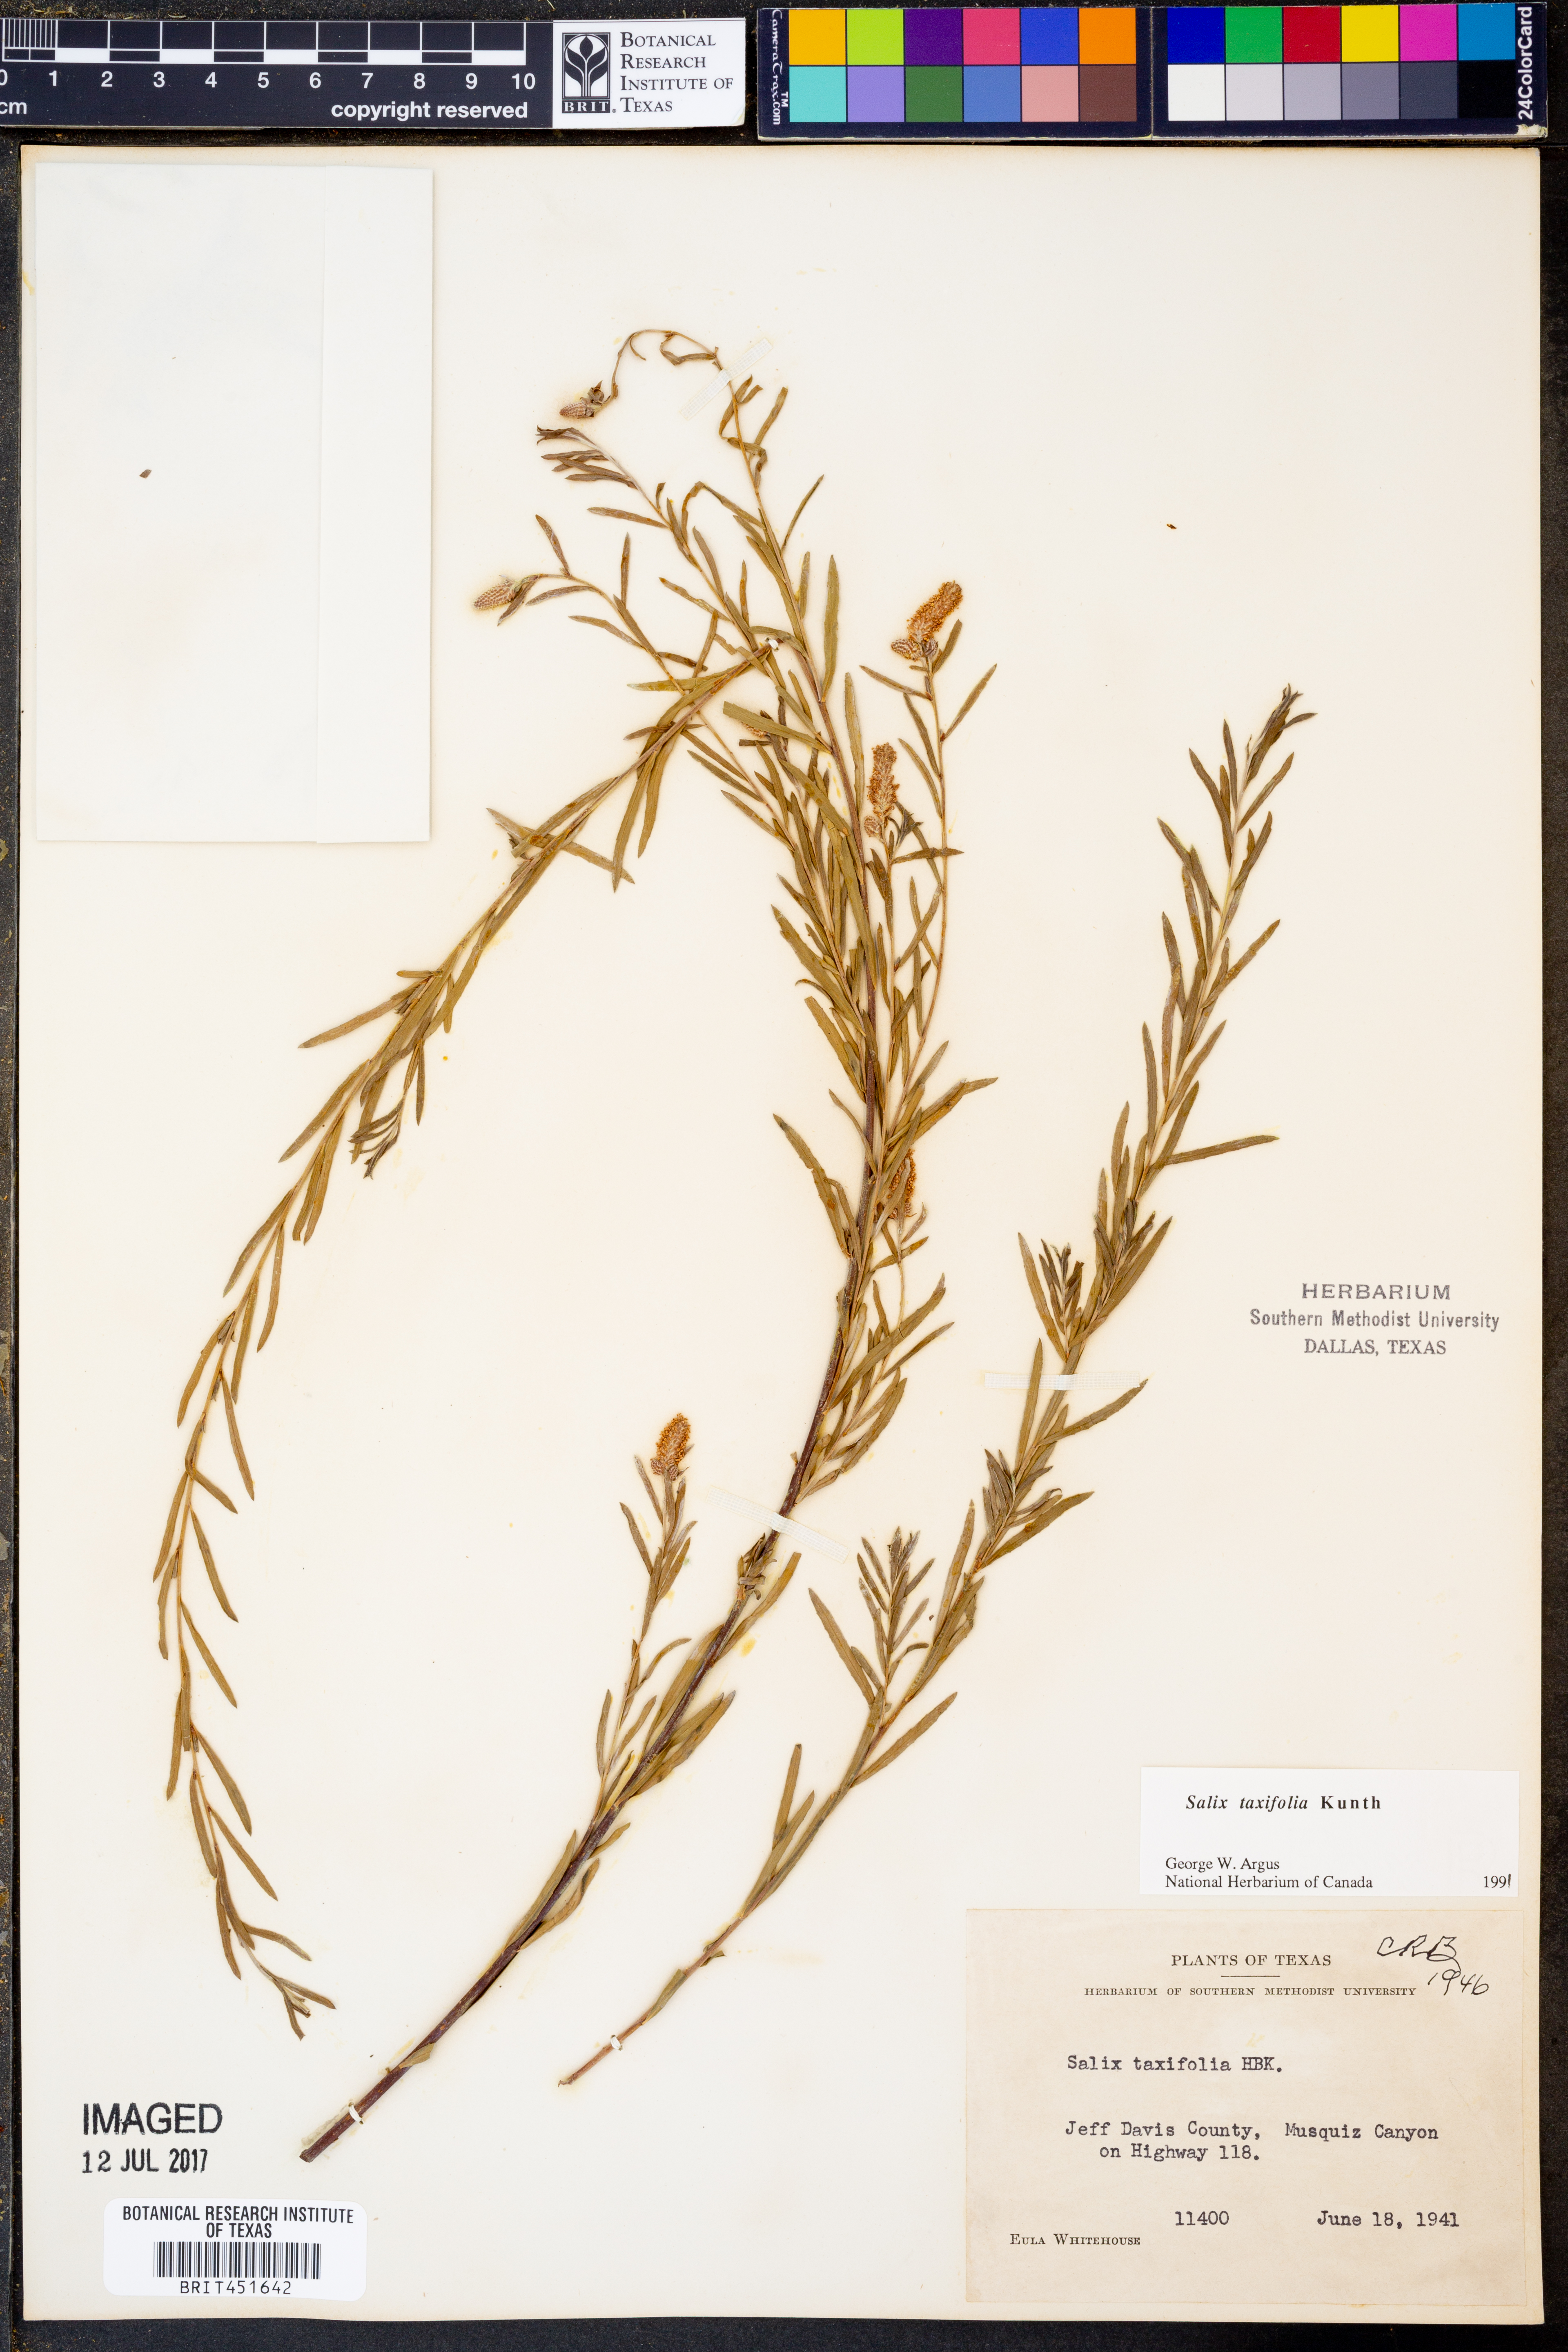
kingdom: Plantae
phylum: Tracheophyta
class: Magnoliopsida
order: Malpighiales
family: Salicaceae
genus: Salix
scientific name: Salix taxifolia
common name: Yew-leaf willow
